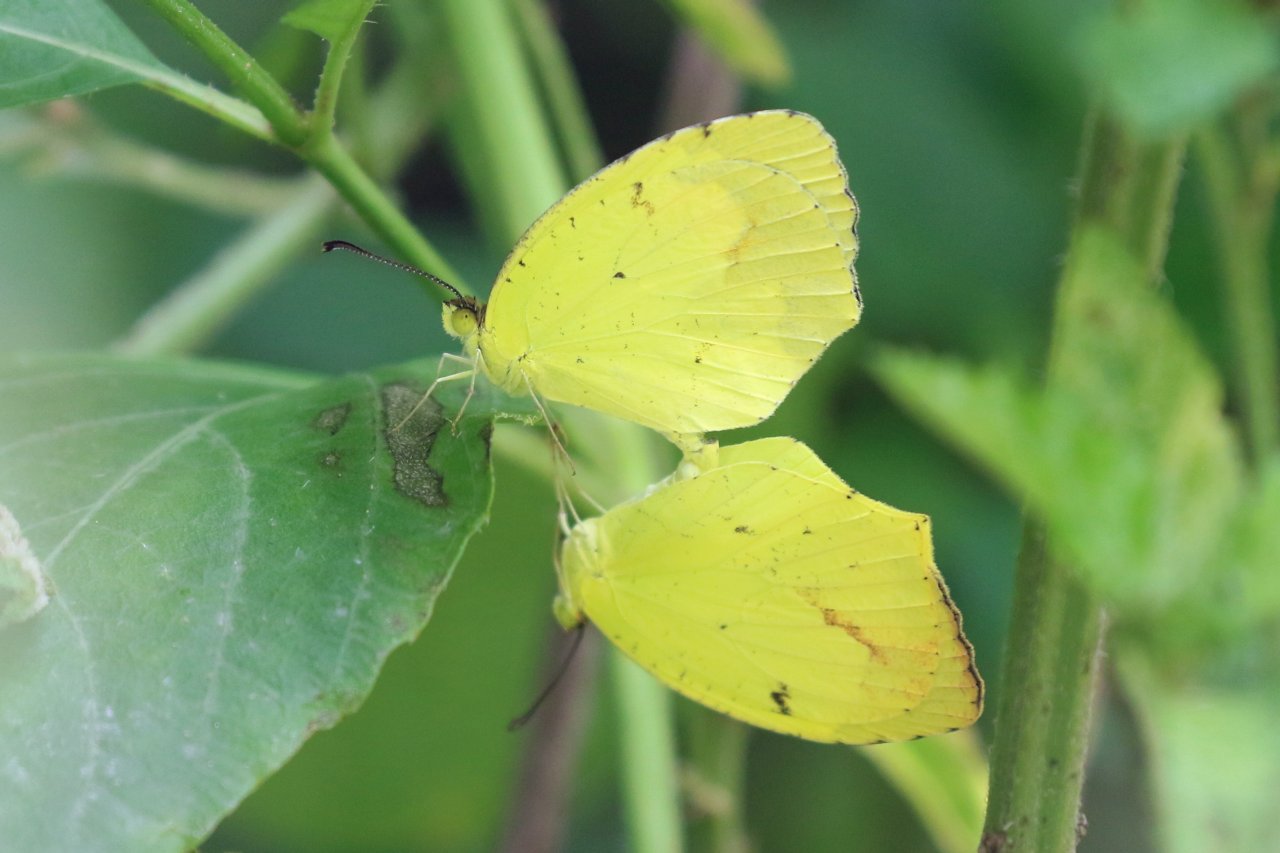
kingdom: Animalia
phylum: Arthropoda
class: Insecta
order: Lepidoptera
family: Pieridae
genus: Eurema
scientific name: Eurema boisduvaliana
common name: Boisduval's Yellow
